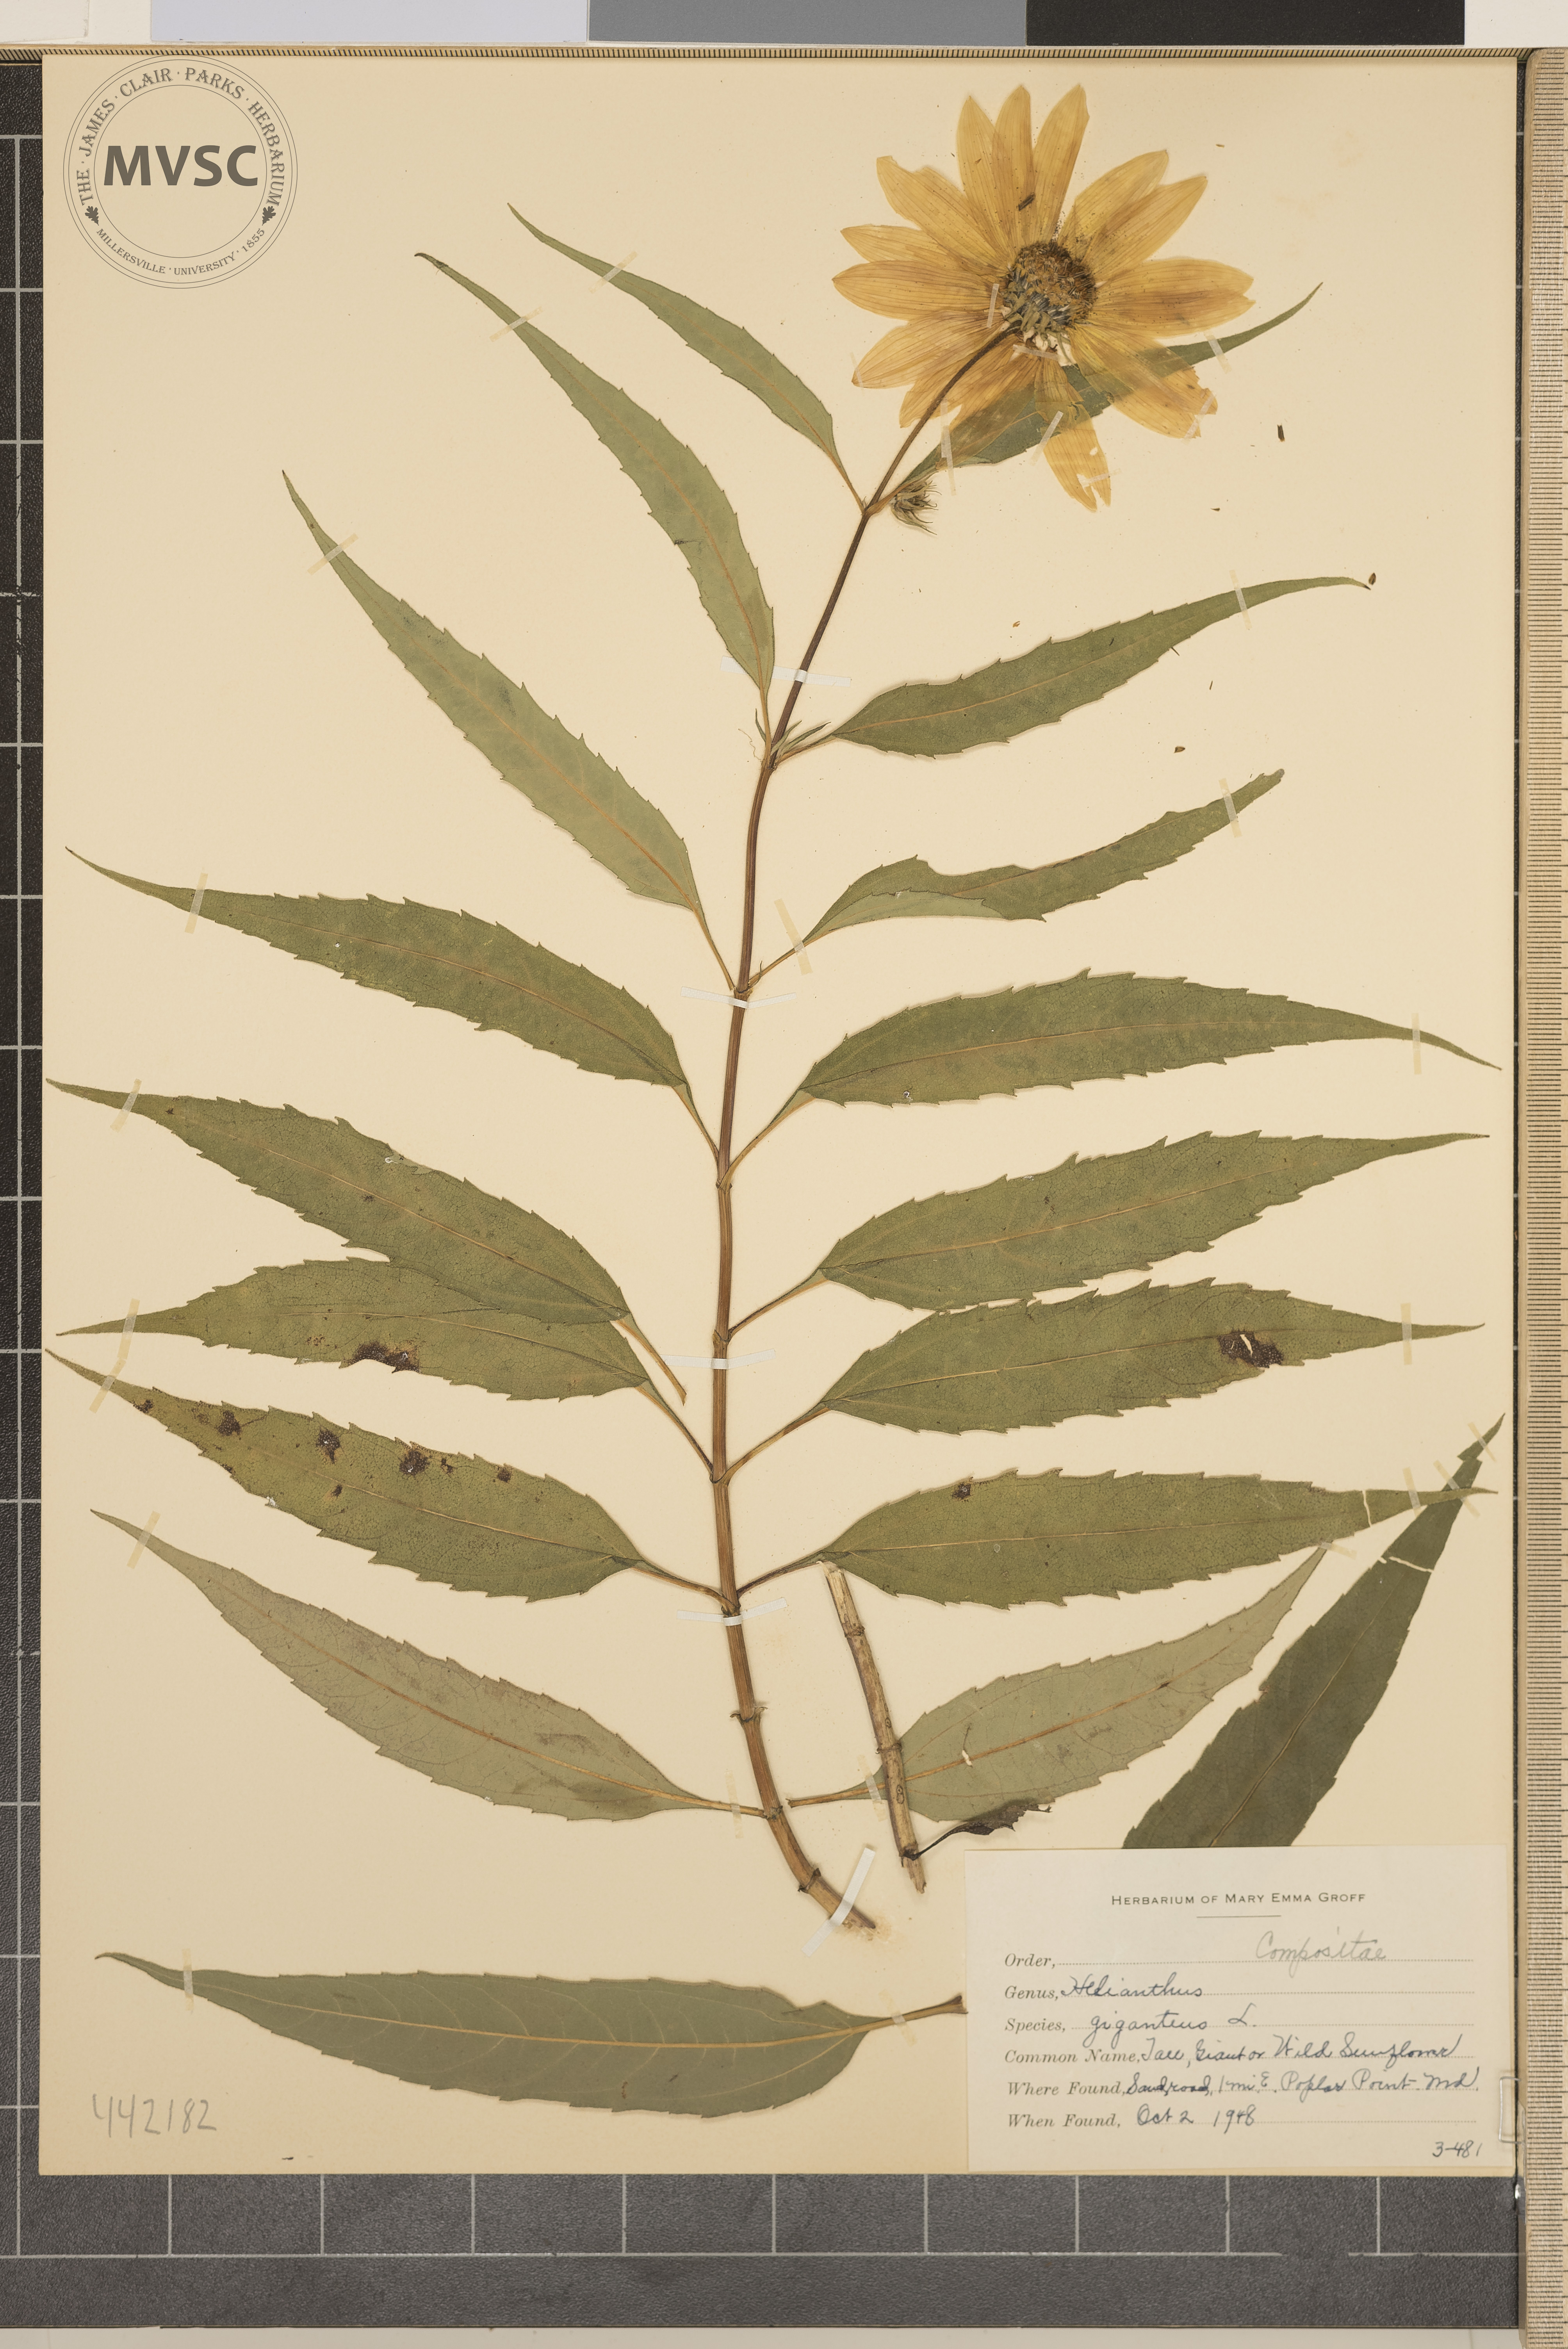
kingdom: Plantae
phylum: Tracheophyta
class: Magnoliopsida
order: Asterales
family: Asteraceae
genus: Helianthus
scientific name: Helianthus giganteus
